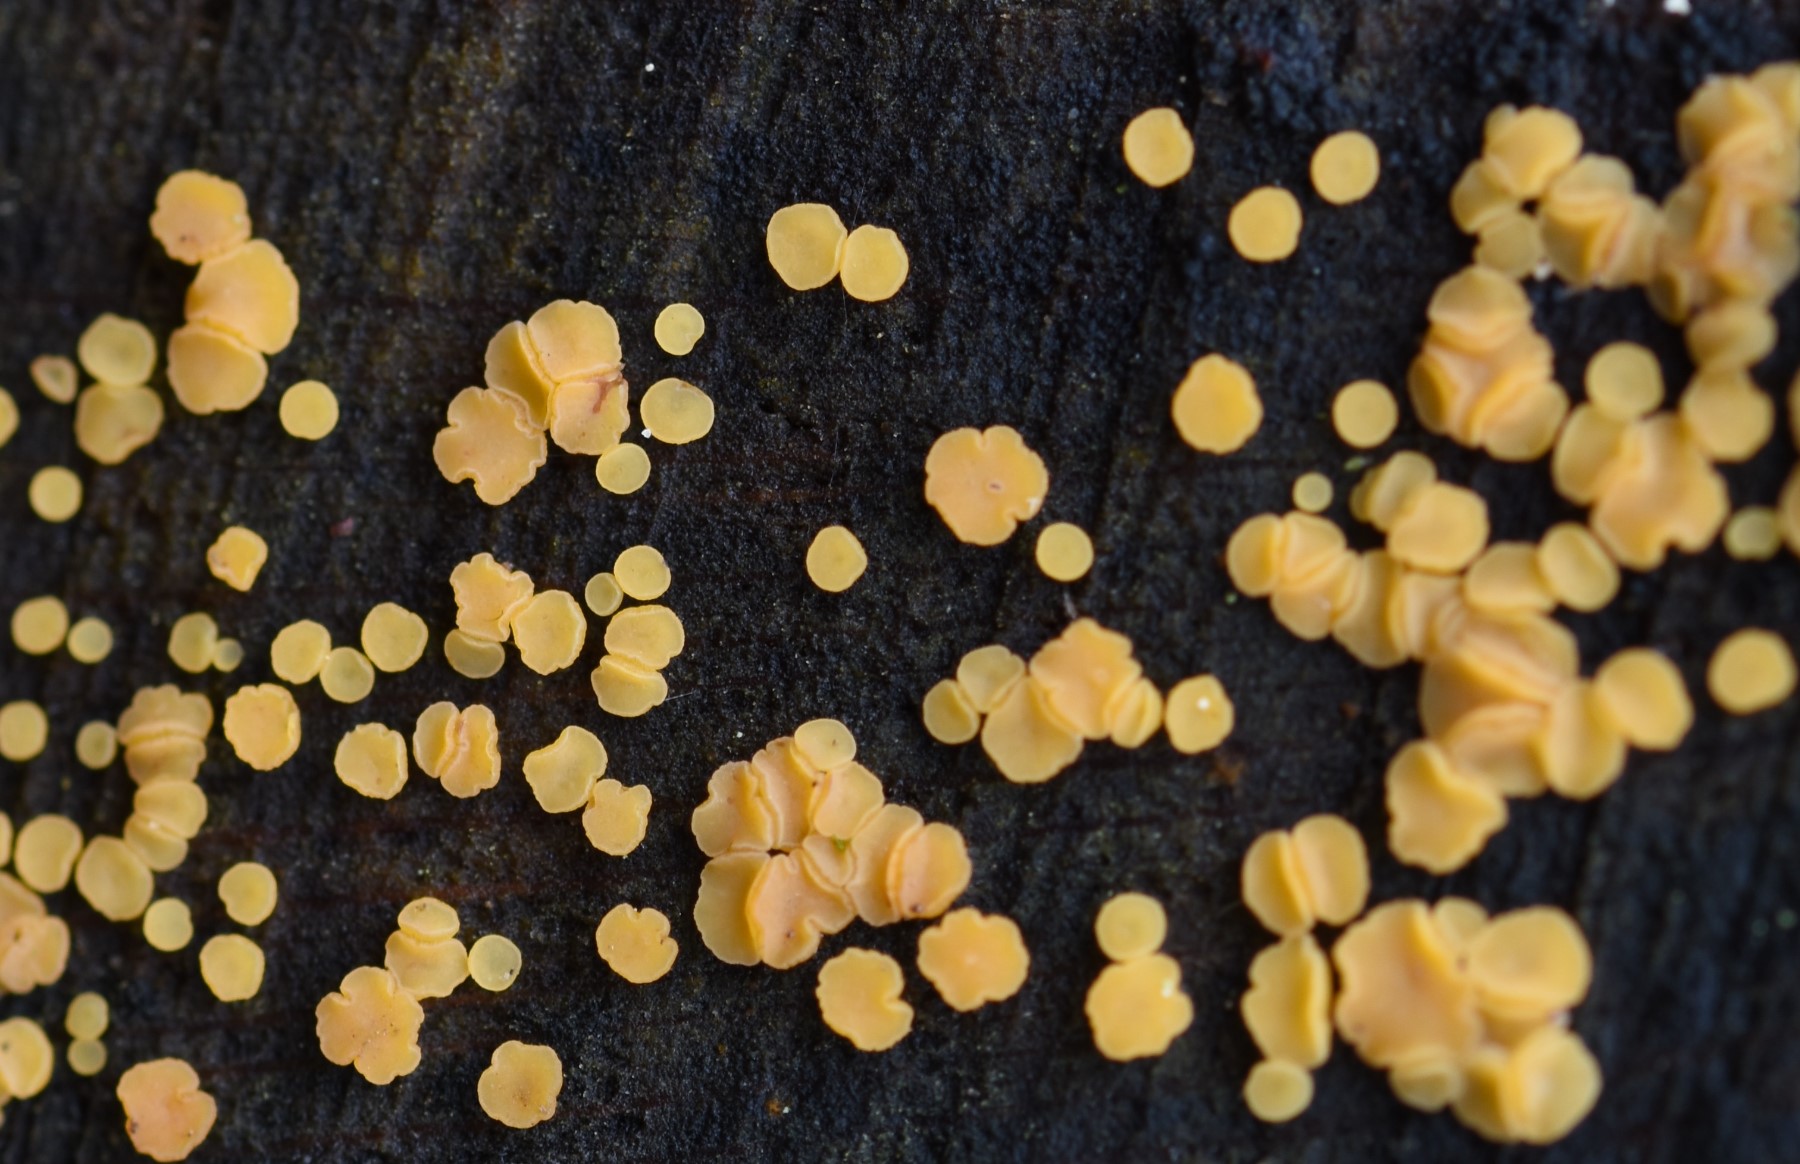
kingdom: Fungi
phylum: Ascomycota
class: Leotiomycetes
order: Helotiales
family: Helotiaceae
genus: Bisporella
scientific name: Bisporella subpallida
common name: lys snitskive
